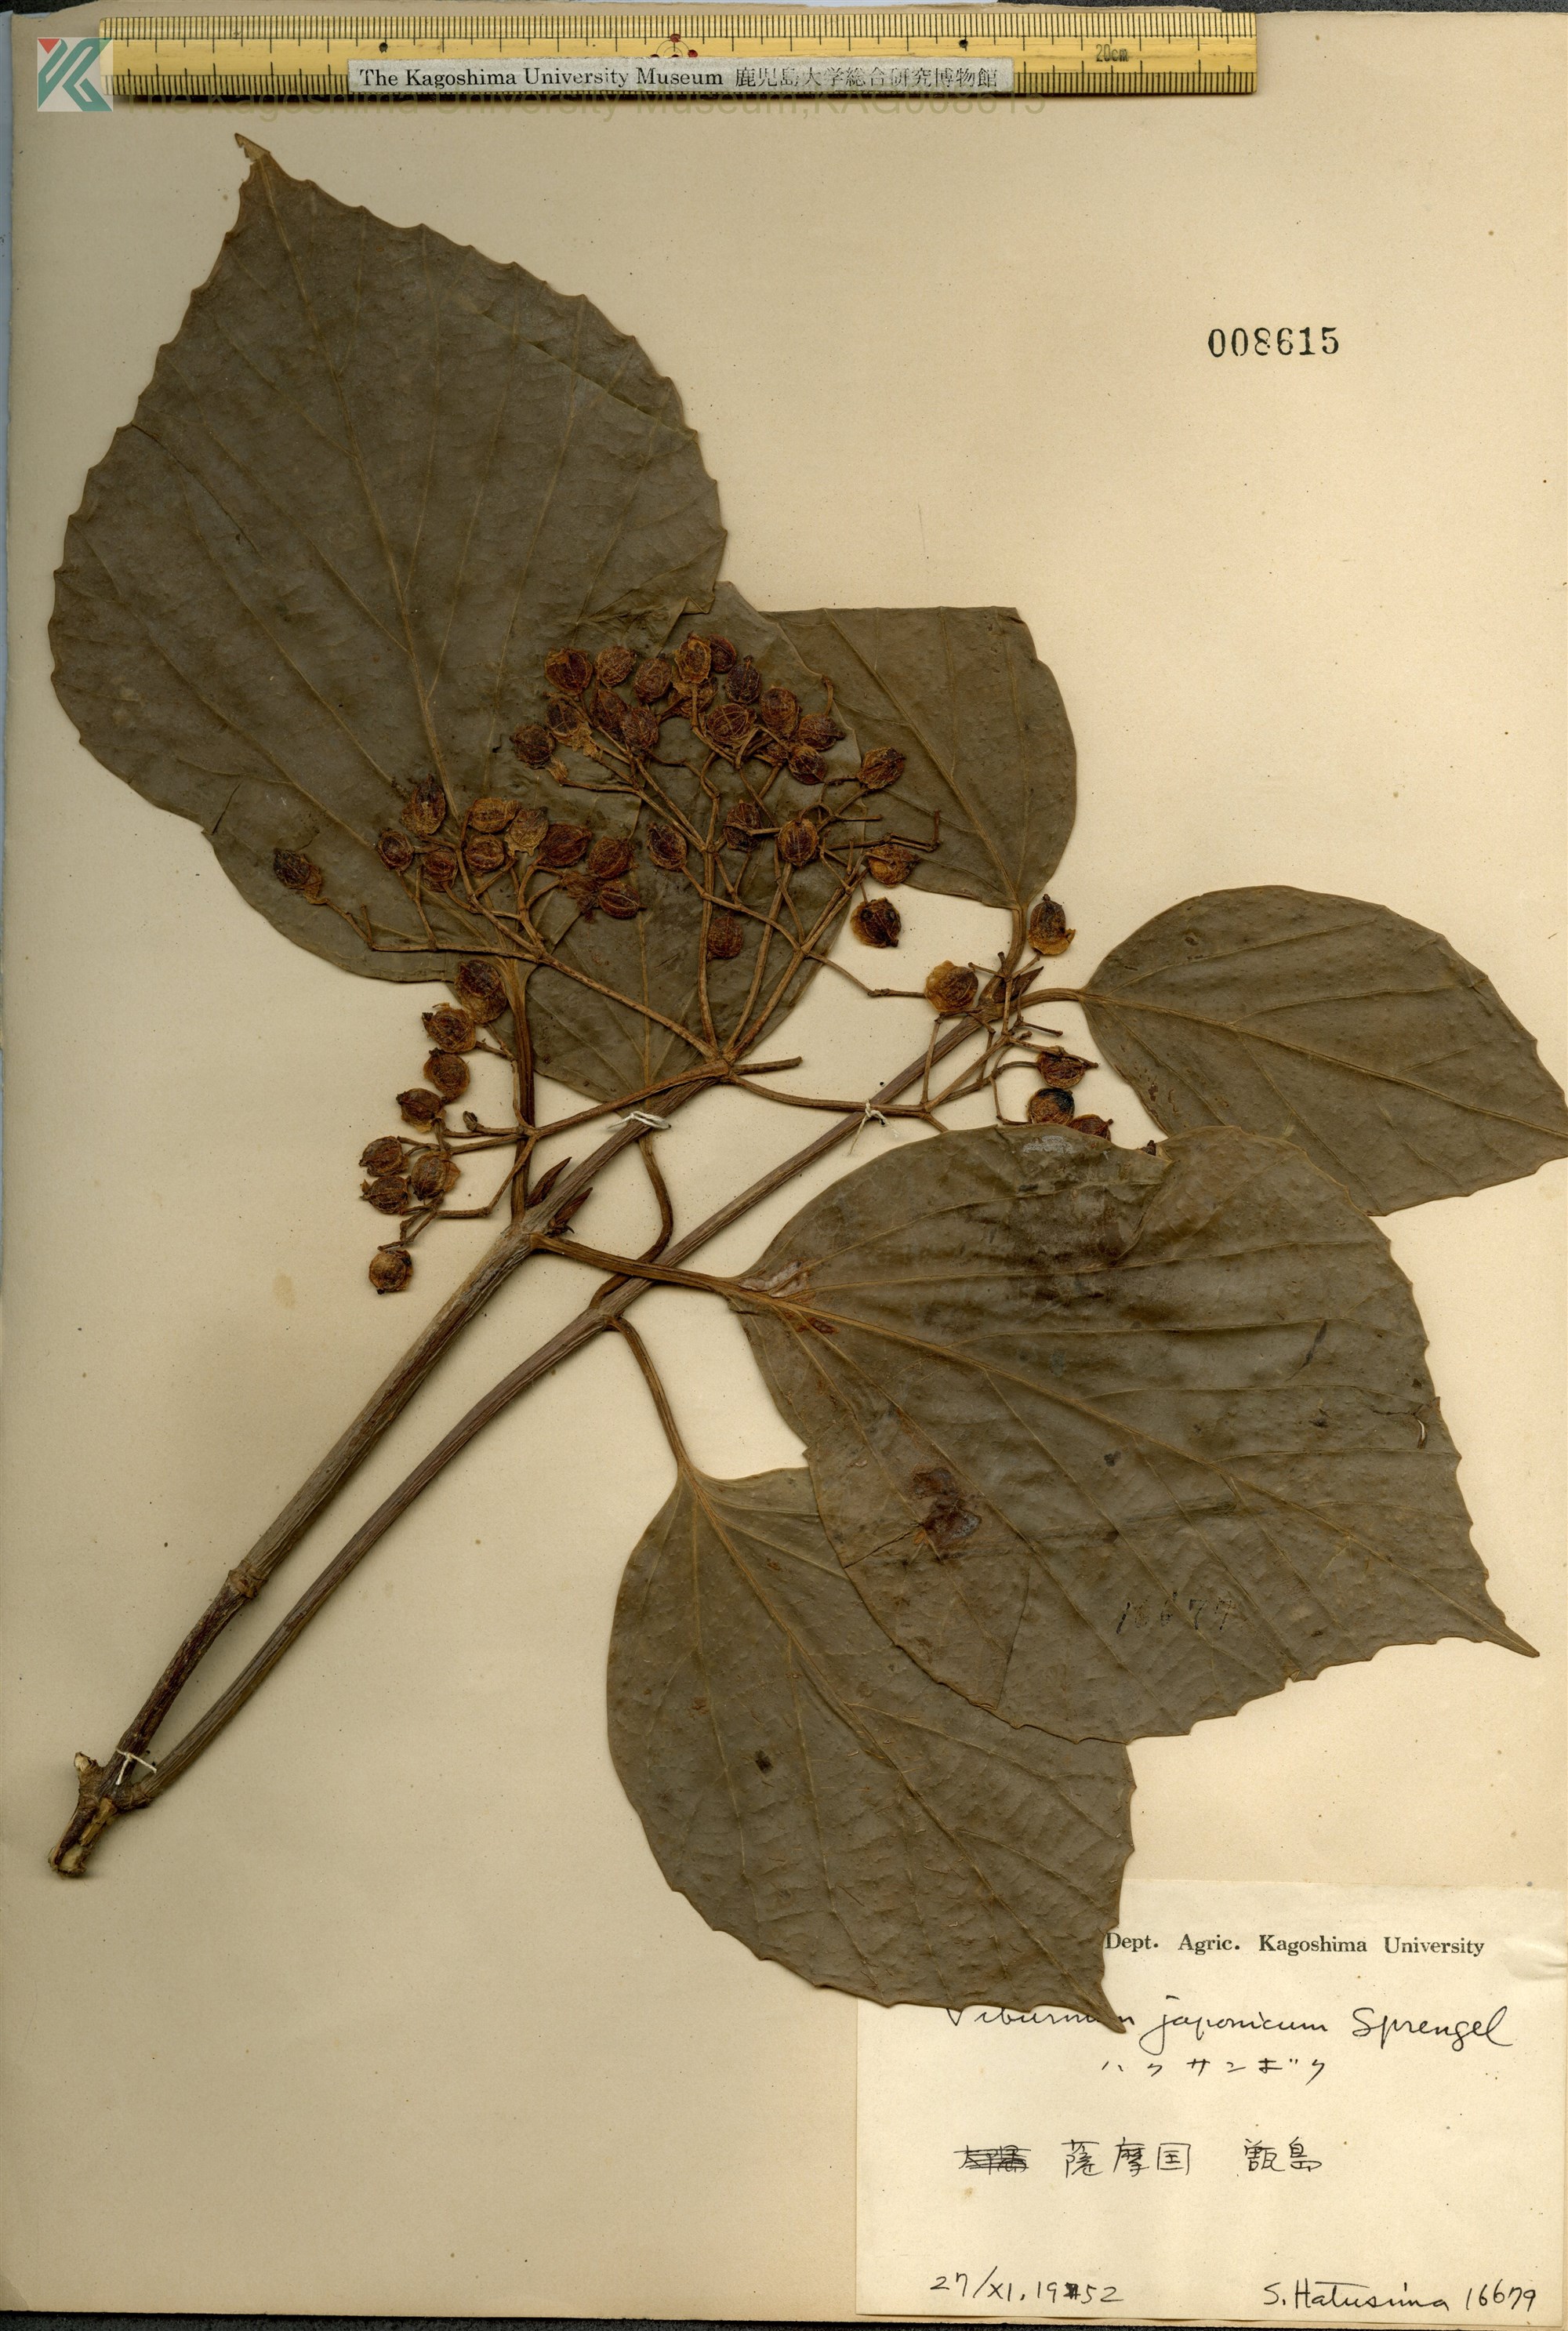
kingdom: Plantae
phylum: Tracheophyta
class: Magnoliopsida
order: Dipsacales
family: Viburnaceae
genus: Viburnum
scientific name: Viburnum japonicum
